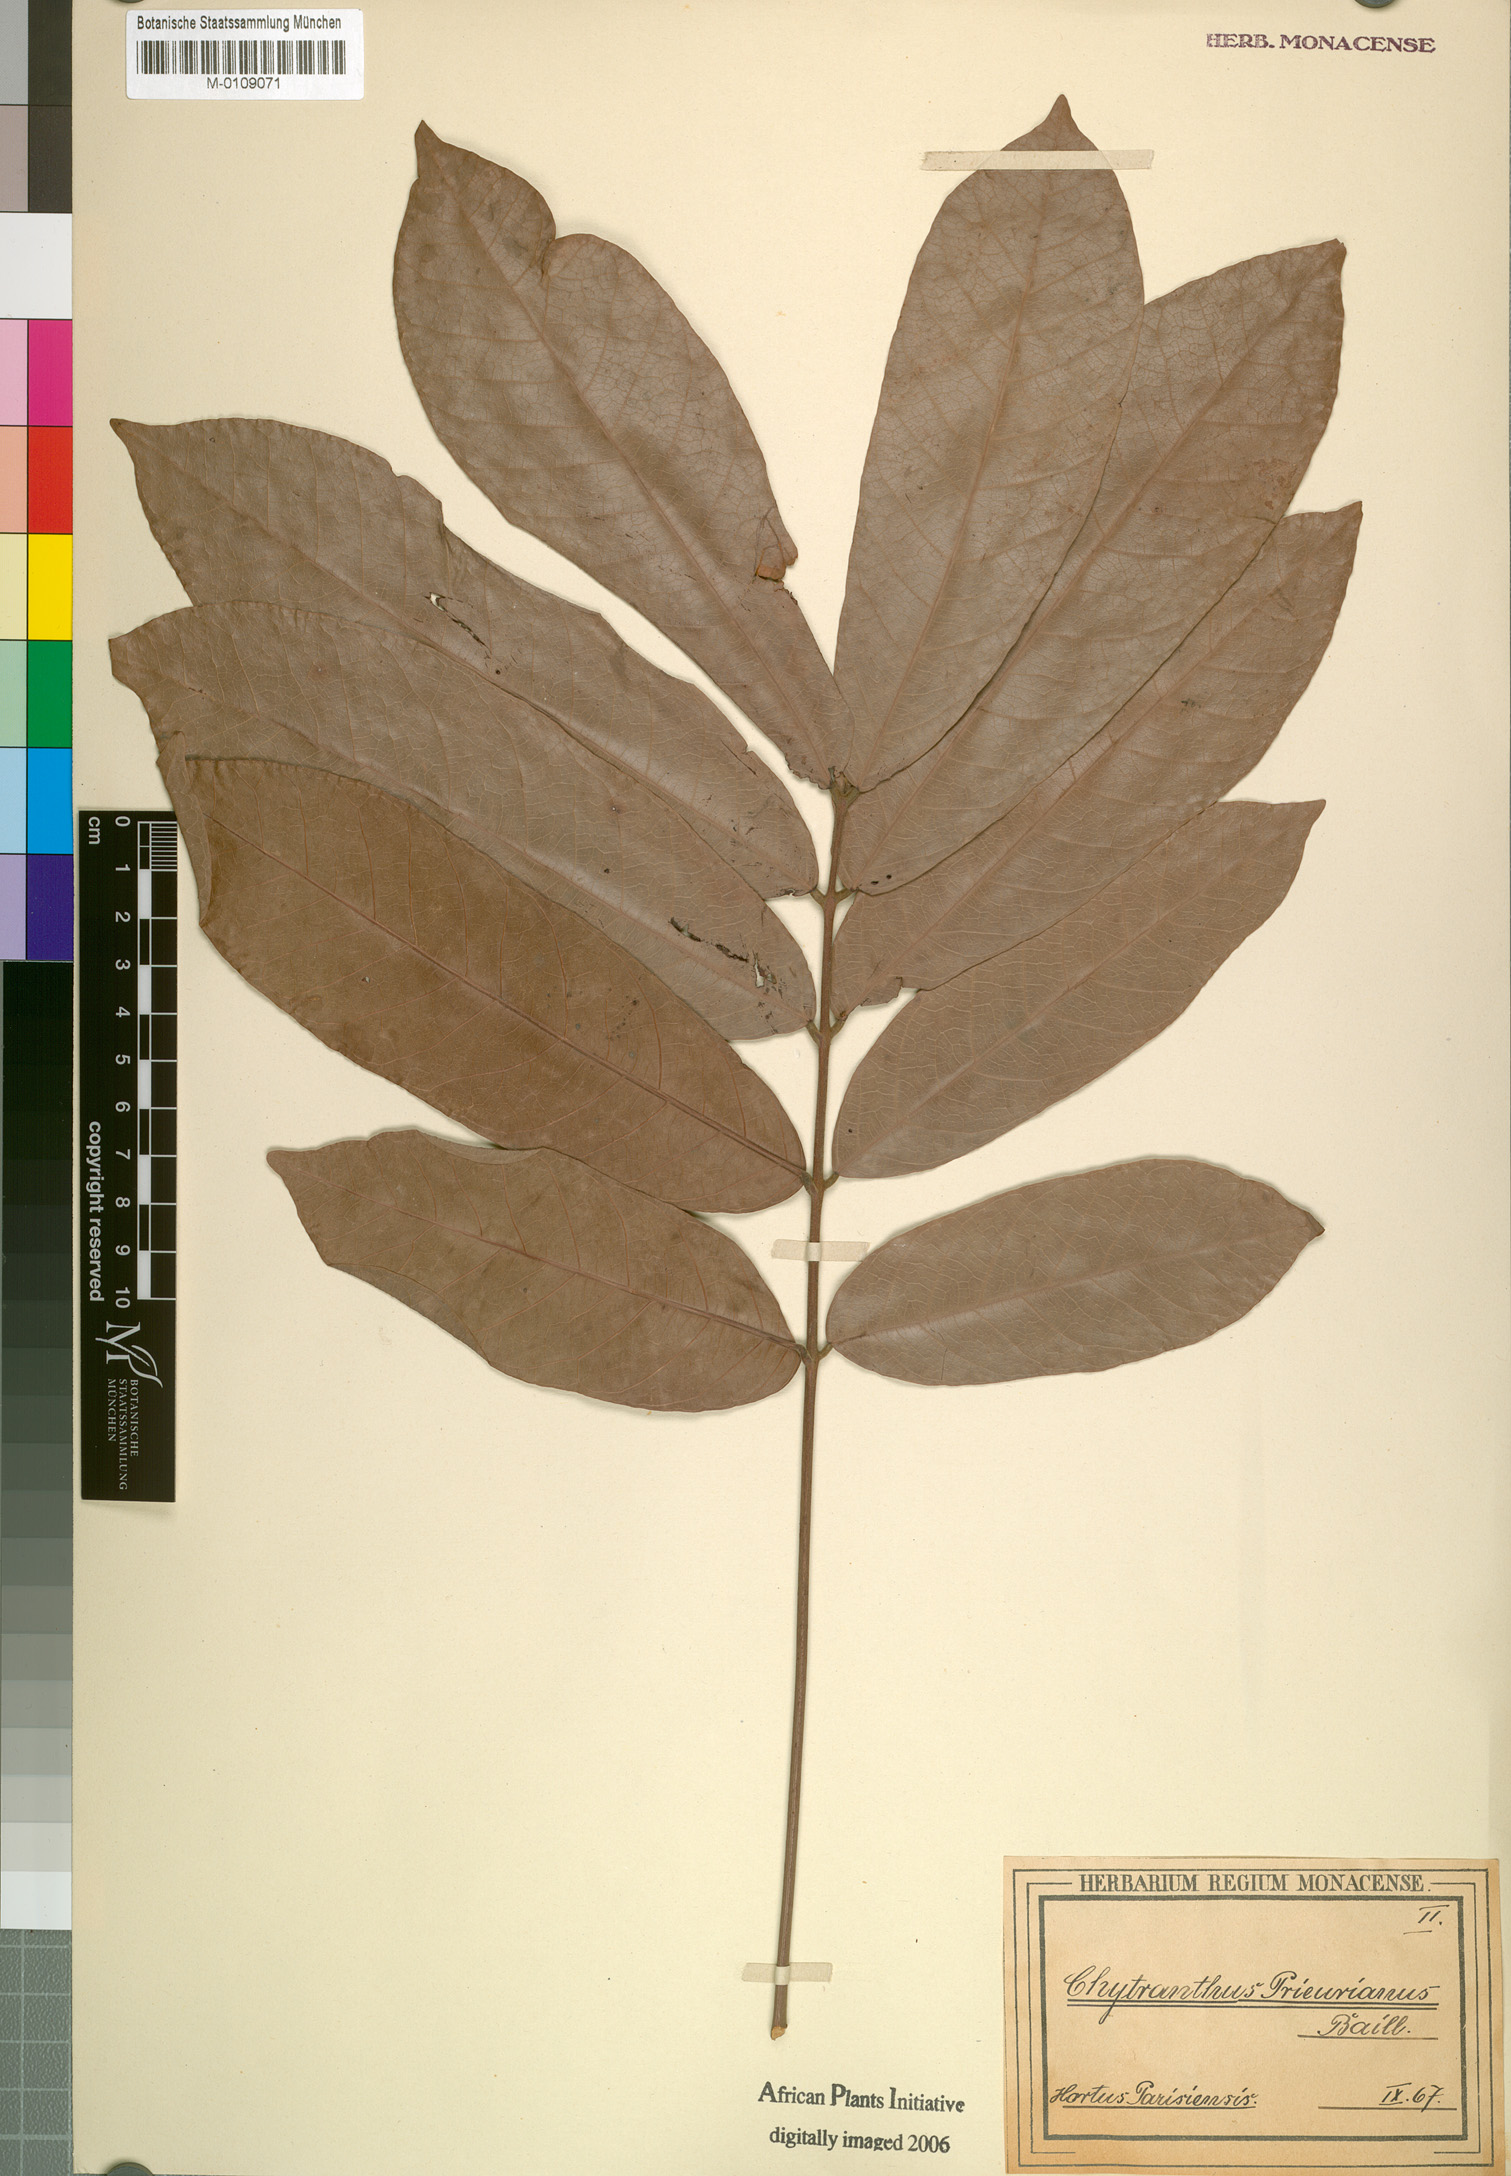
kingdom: Plantae
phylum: Tracheophyta
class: Magnoliopsida
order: Sapindales
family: Sapindaceae
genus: Chytranthus
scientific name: Chytranthus prieurianus
